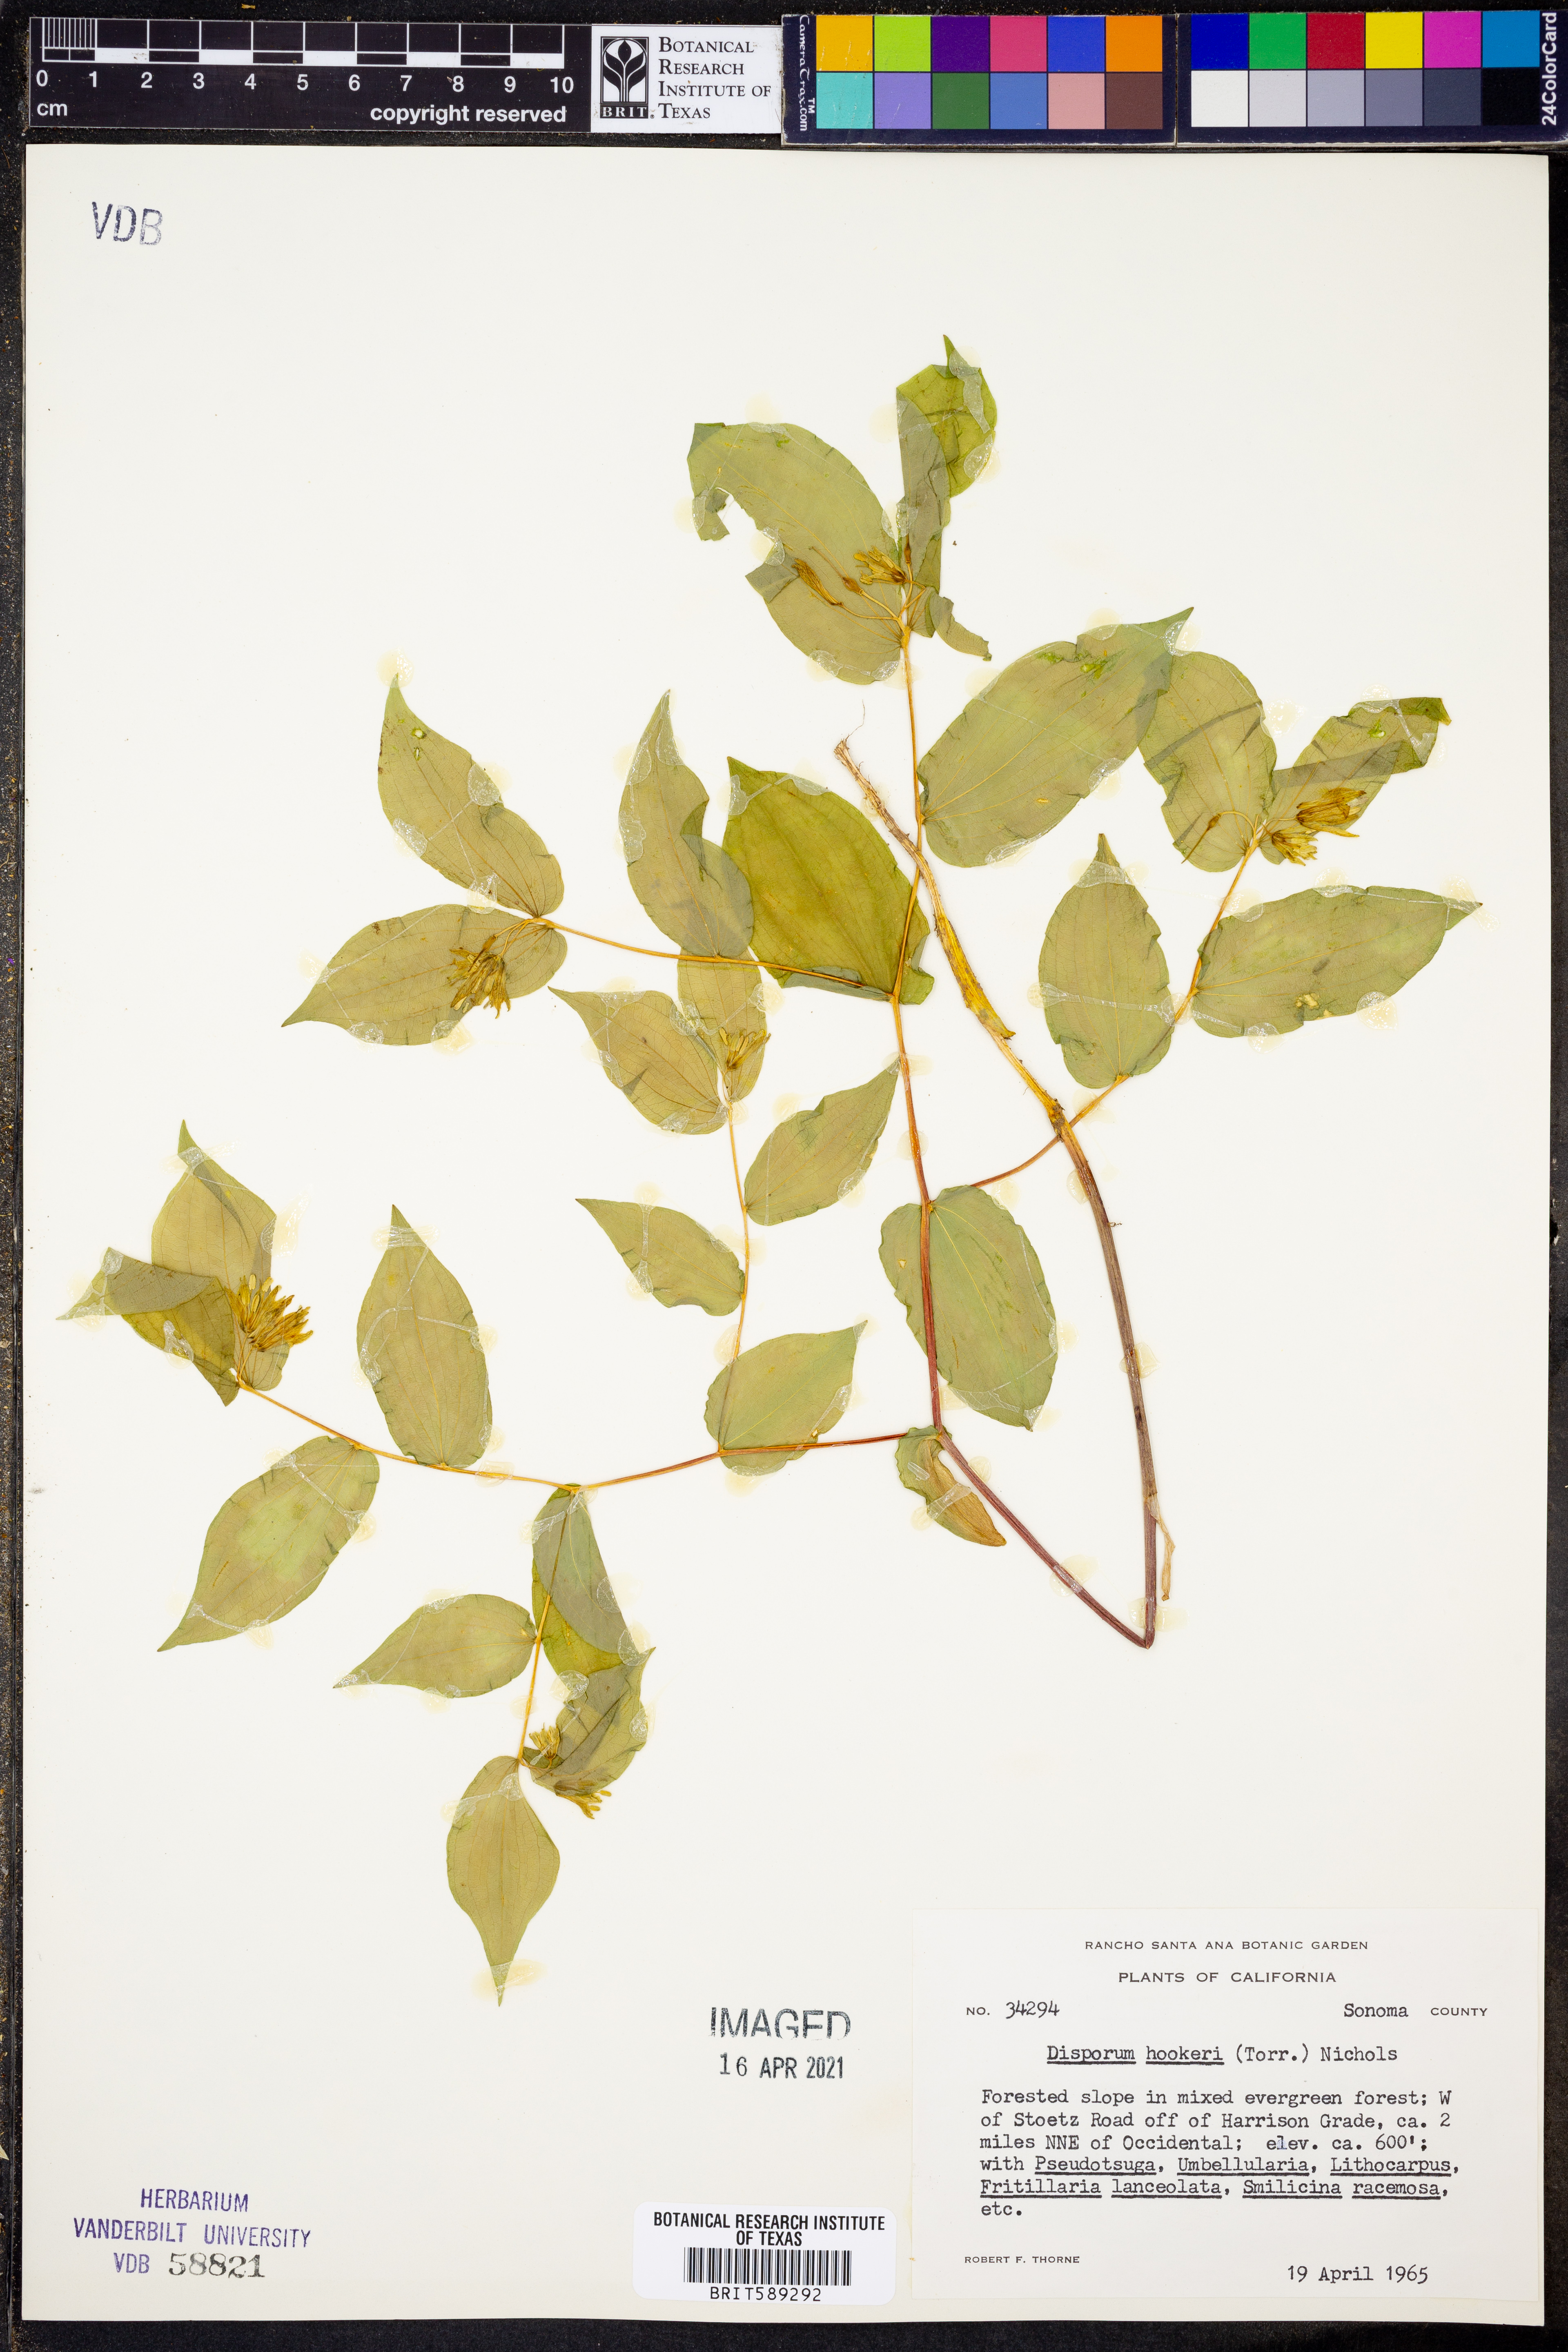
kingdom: Plantae
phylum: Tracheophyta
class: Liliopsida
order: Liliales
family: Colchicaceae
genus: Disporum
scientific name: Disporum hookeri
